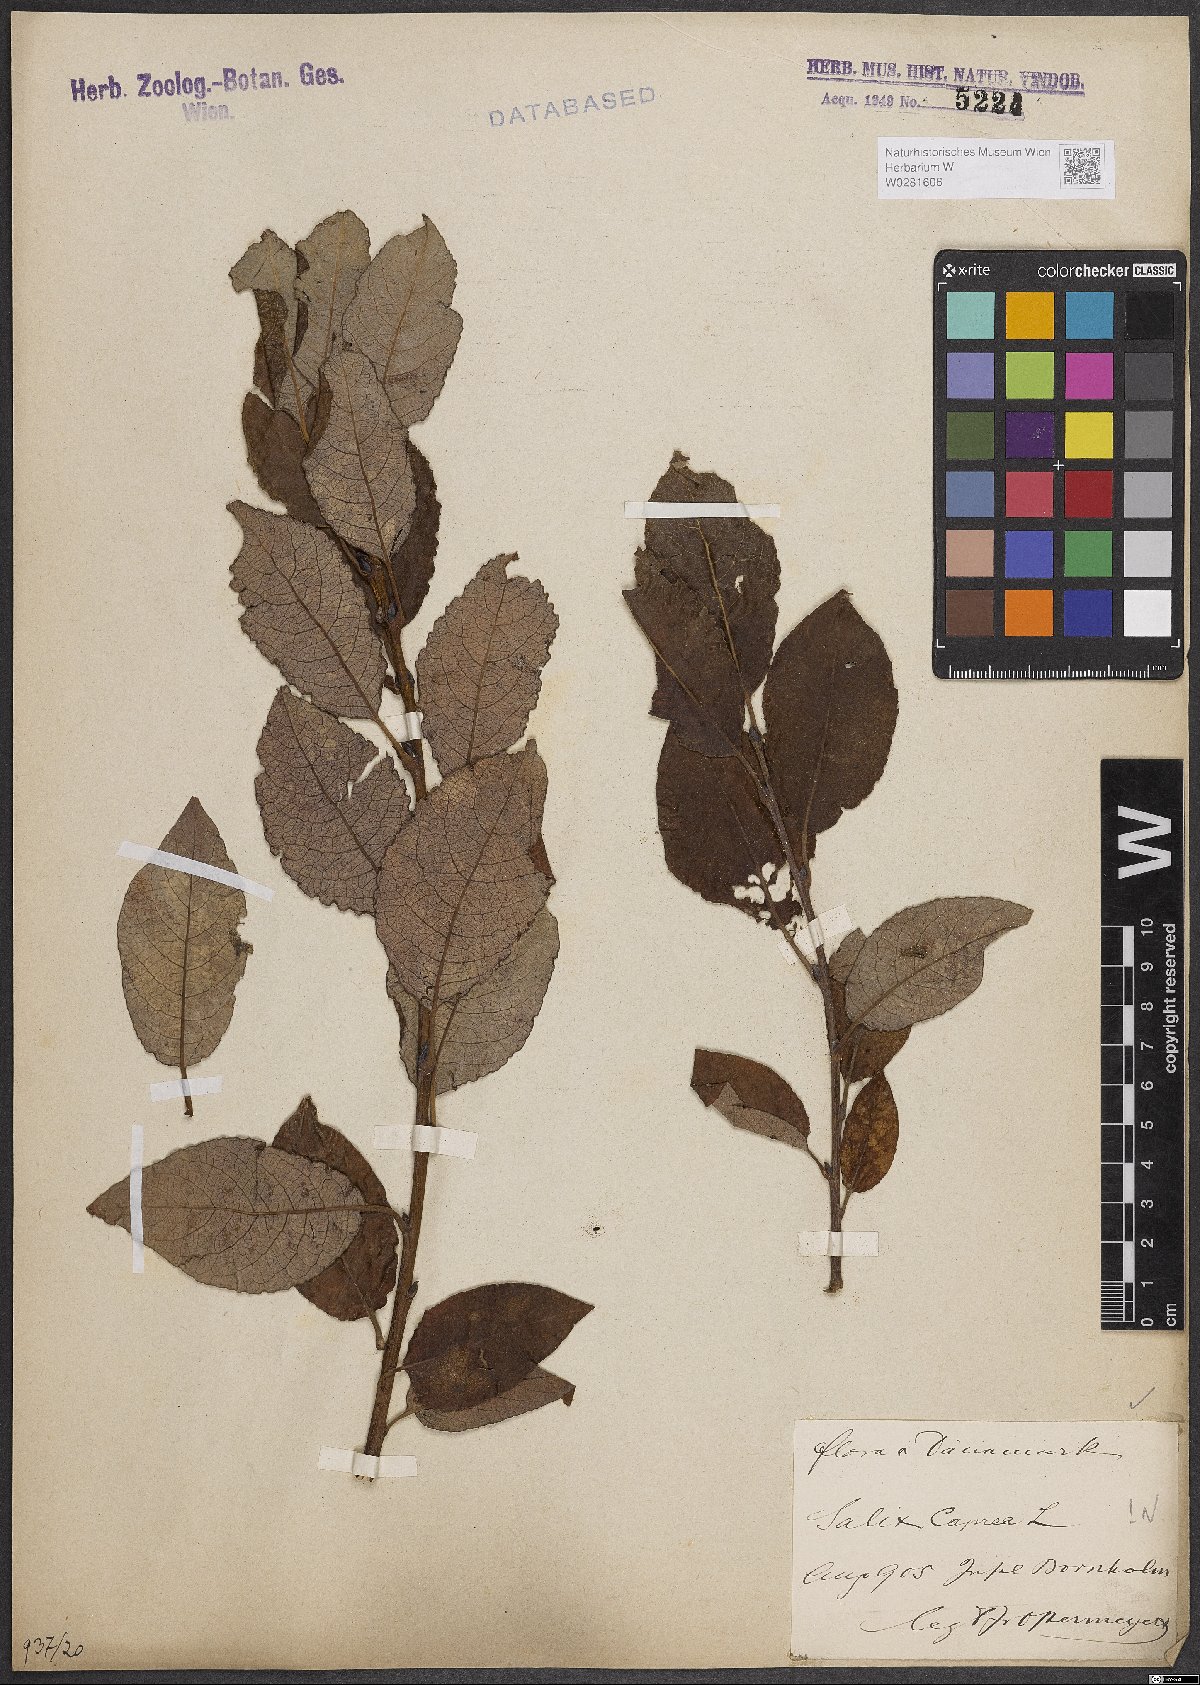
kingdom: Plantae
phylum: Tracheophyta
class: Magnoliopsida
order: Malpighiales
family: Salicaceae
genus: Salix
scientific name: Salix caprea
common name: Goat willow
